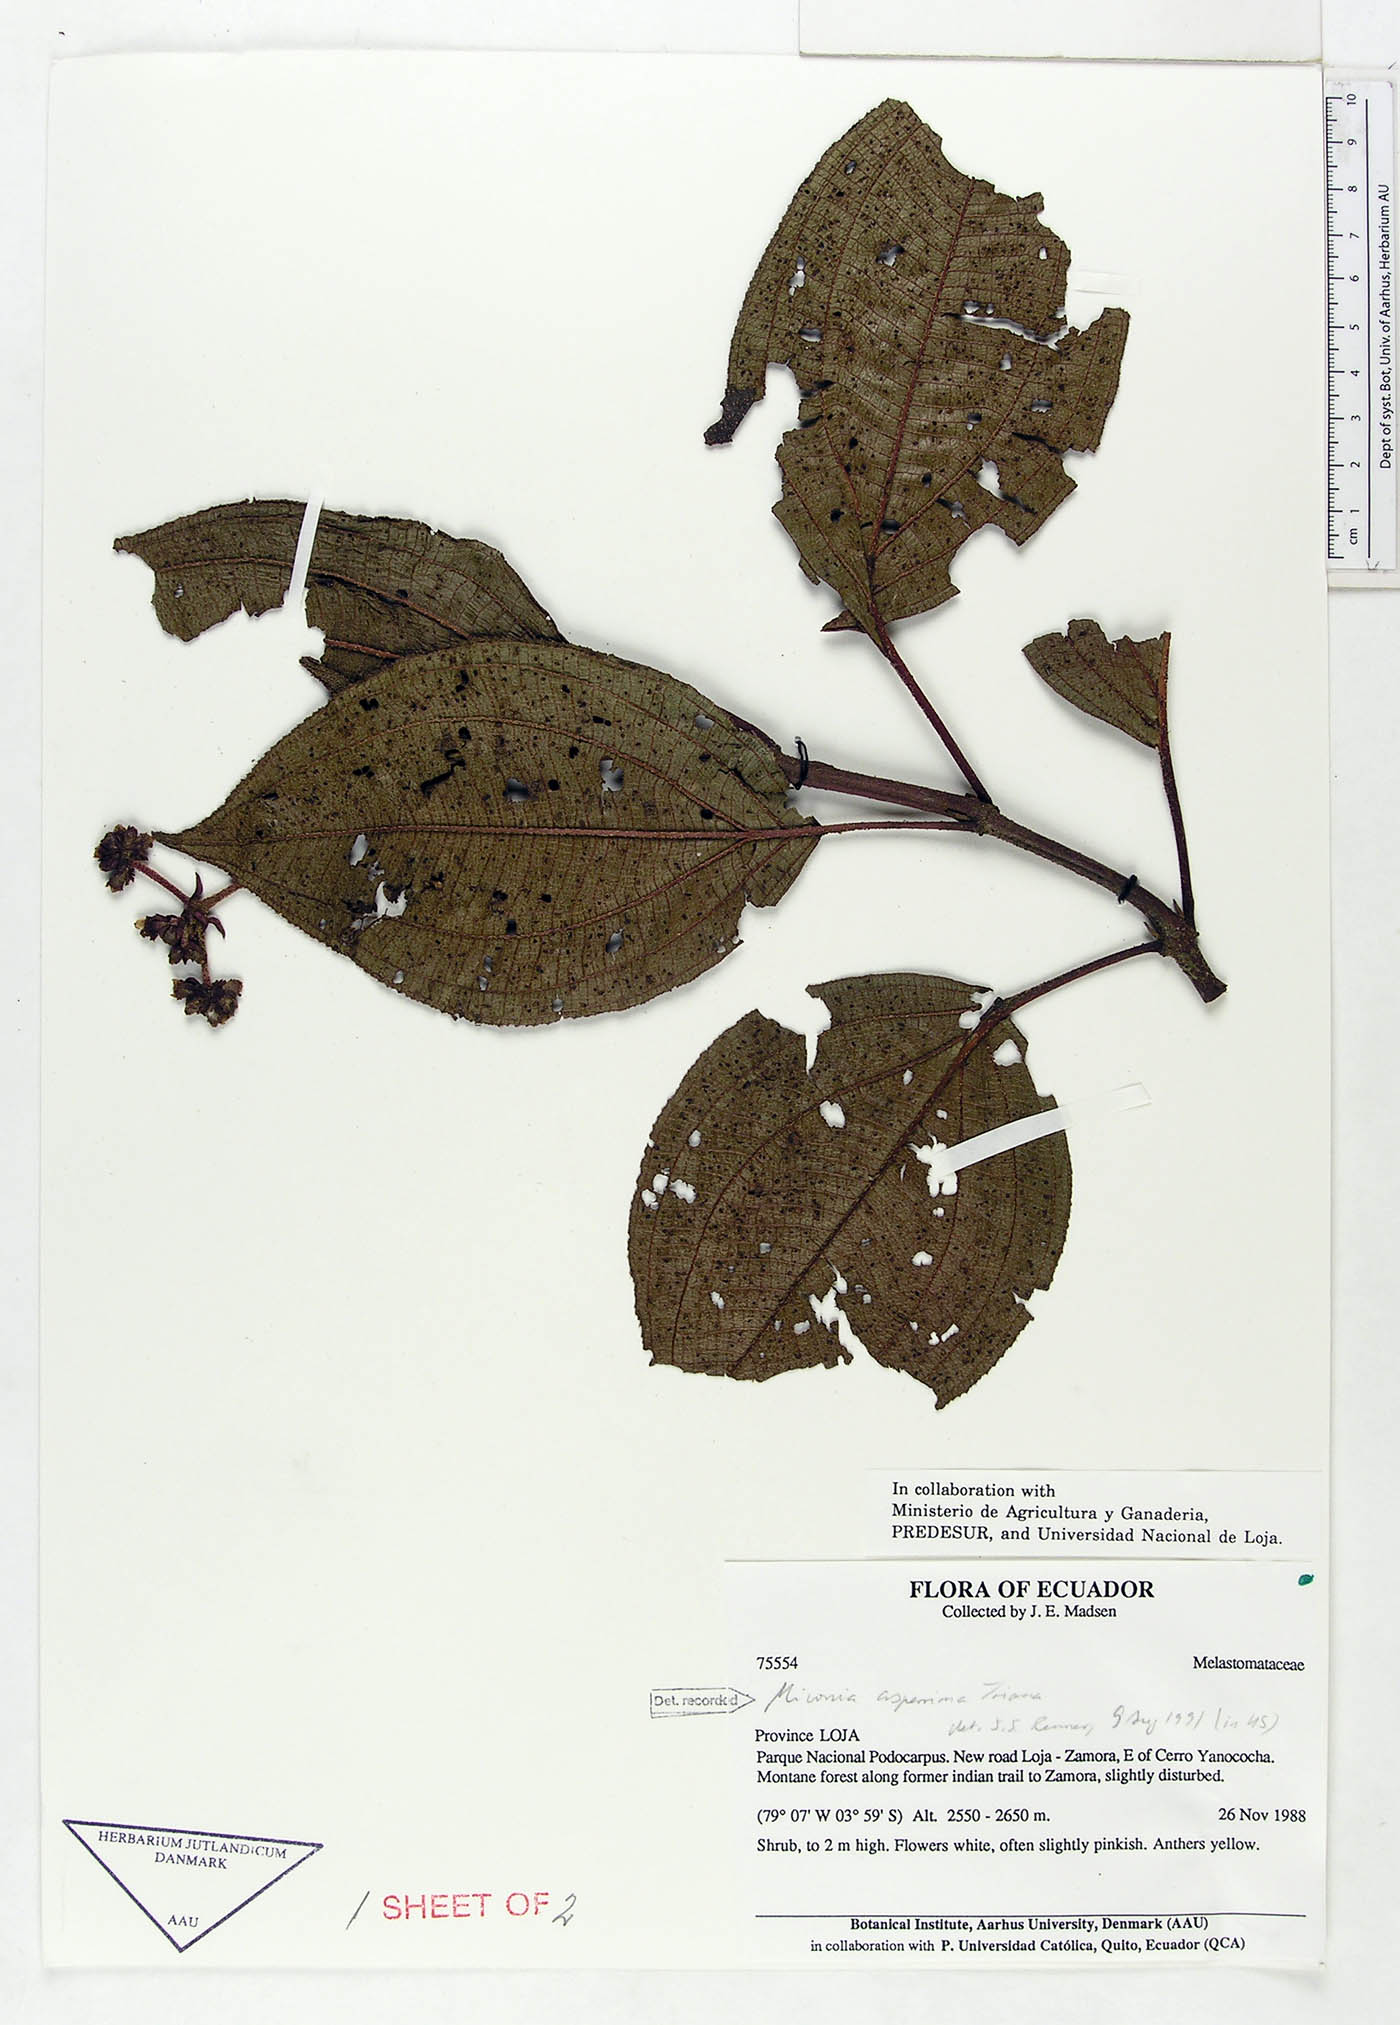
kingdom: Plantae
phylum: Tracheophyta
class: Magnoliopsida
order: Myrtales
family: Melastomataceae
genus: Miconia
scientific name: Miconia asperrima
